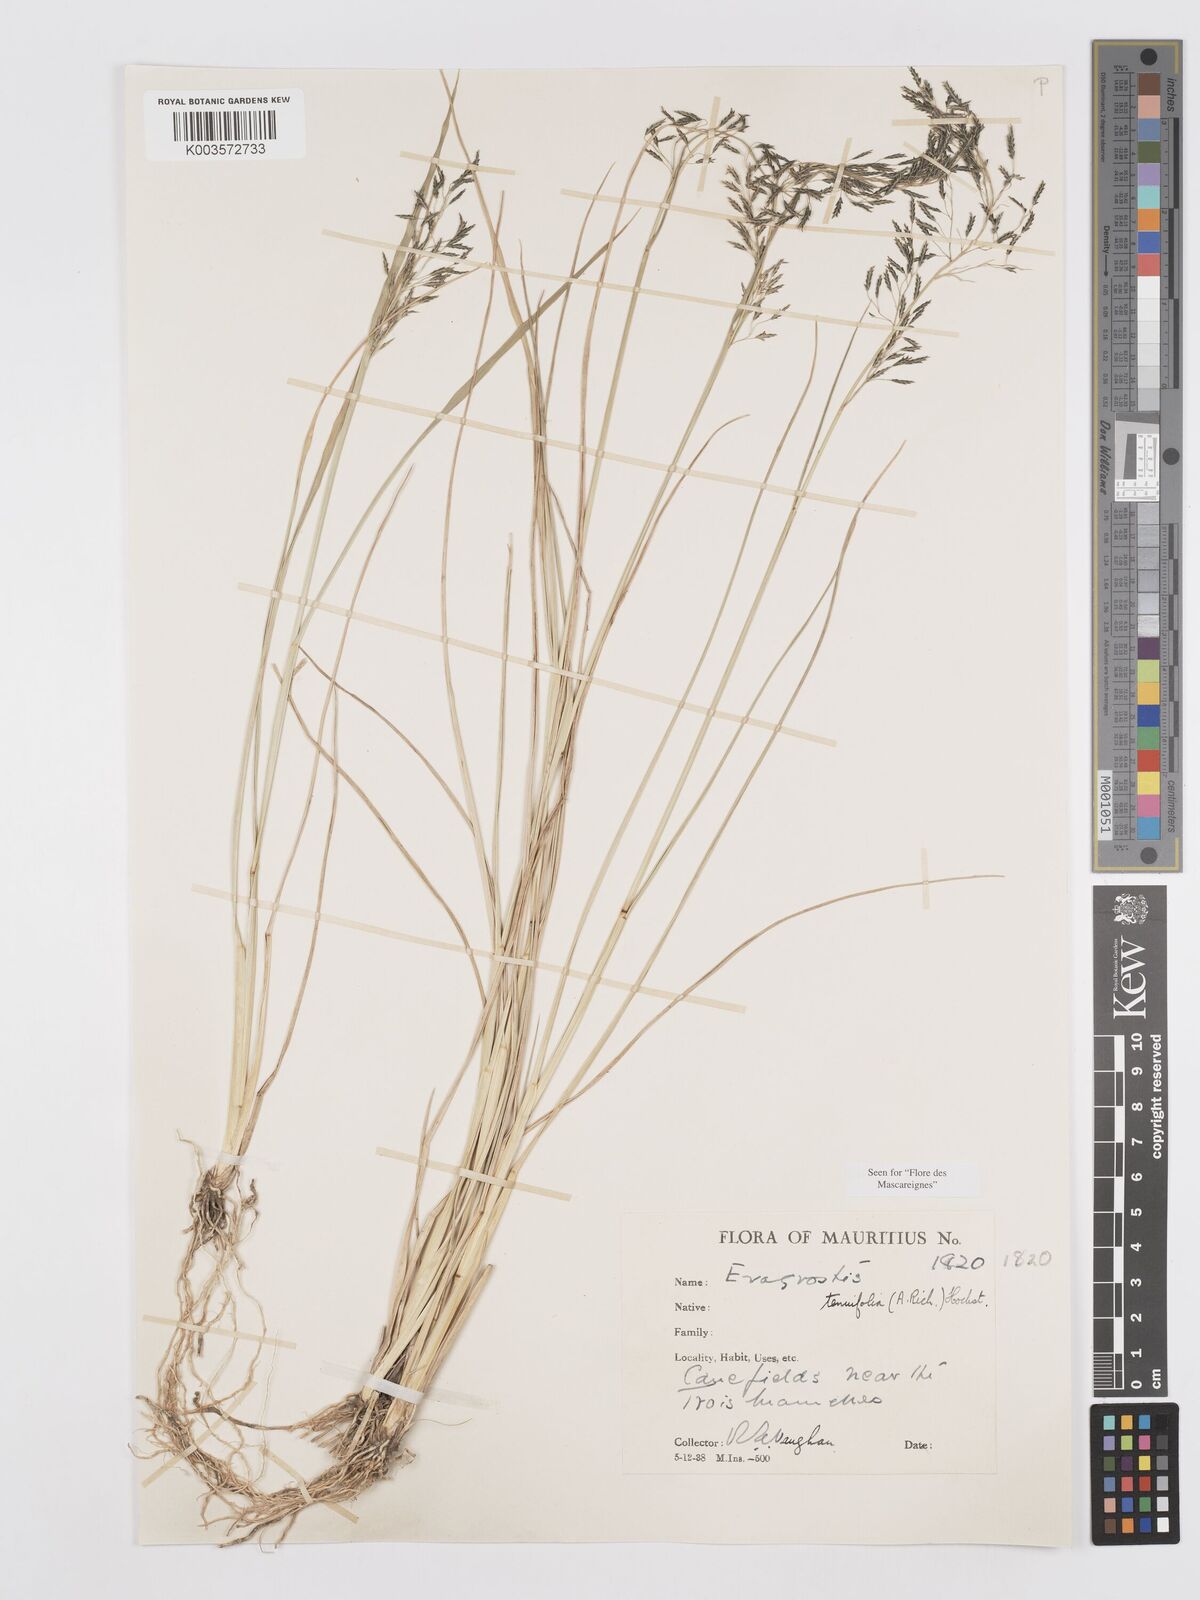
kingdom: Plantae
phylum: Tracheophyta
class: Liliopsida
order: Poales
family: Poaceae
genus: Eragrostis
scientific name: Eragrostis tenuifolia
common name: Elastic grass
